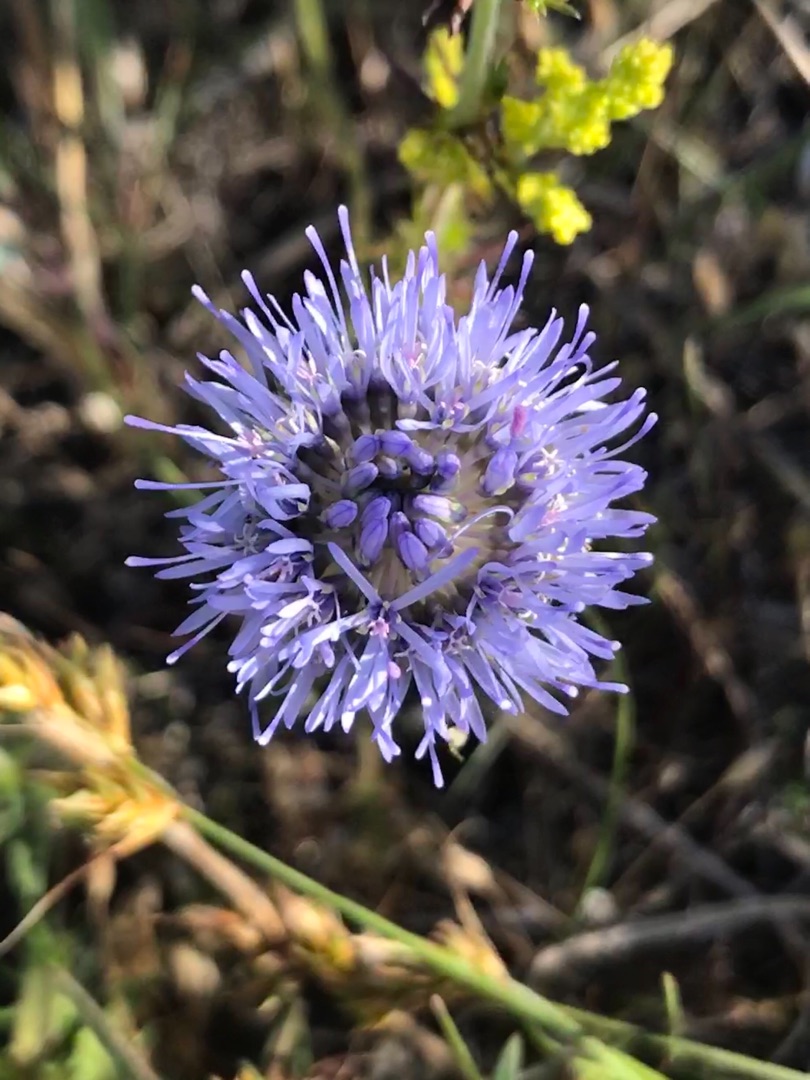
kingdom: Plantae
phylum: Tracheophyta
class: Magnoliopsida
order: Asterales
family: Campanulaceae
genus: Jasione
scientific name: Jasione montana
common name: Blåmunke
